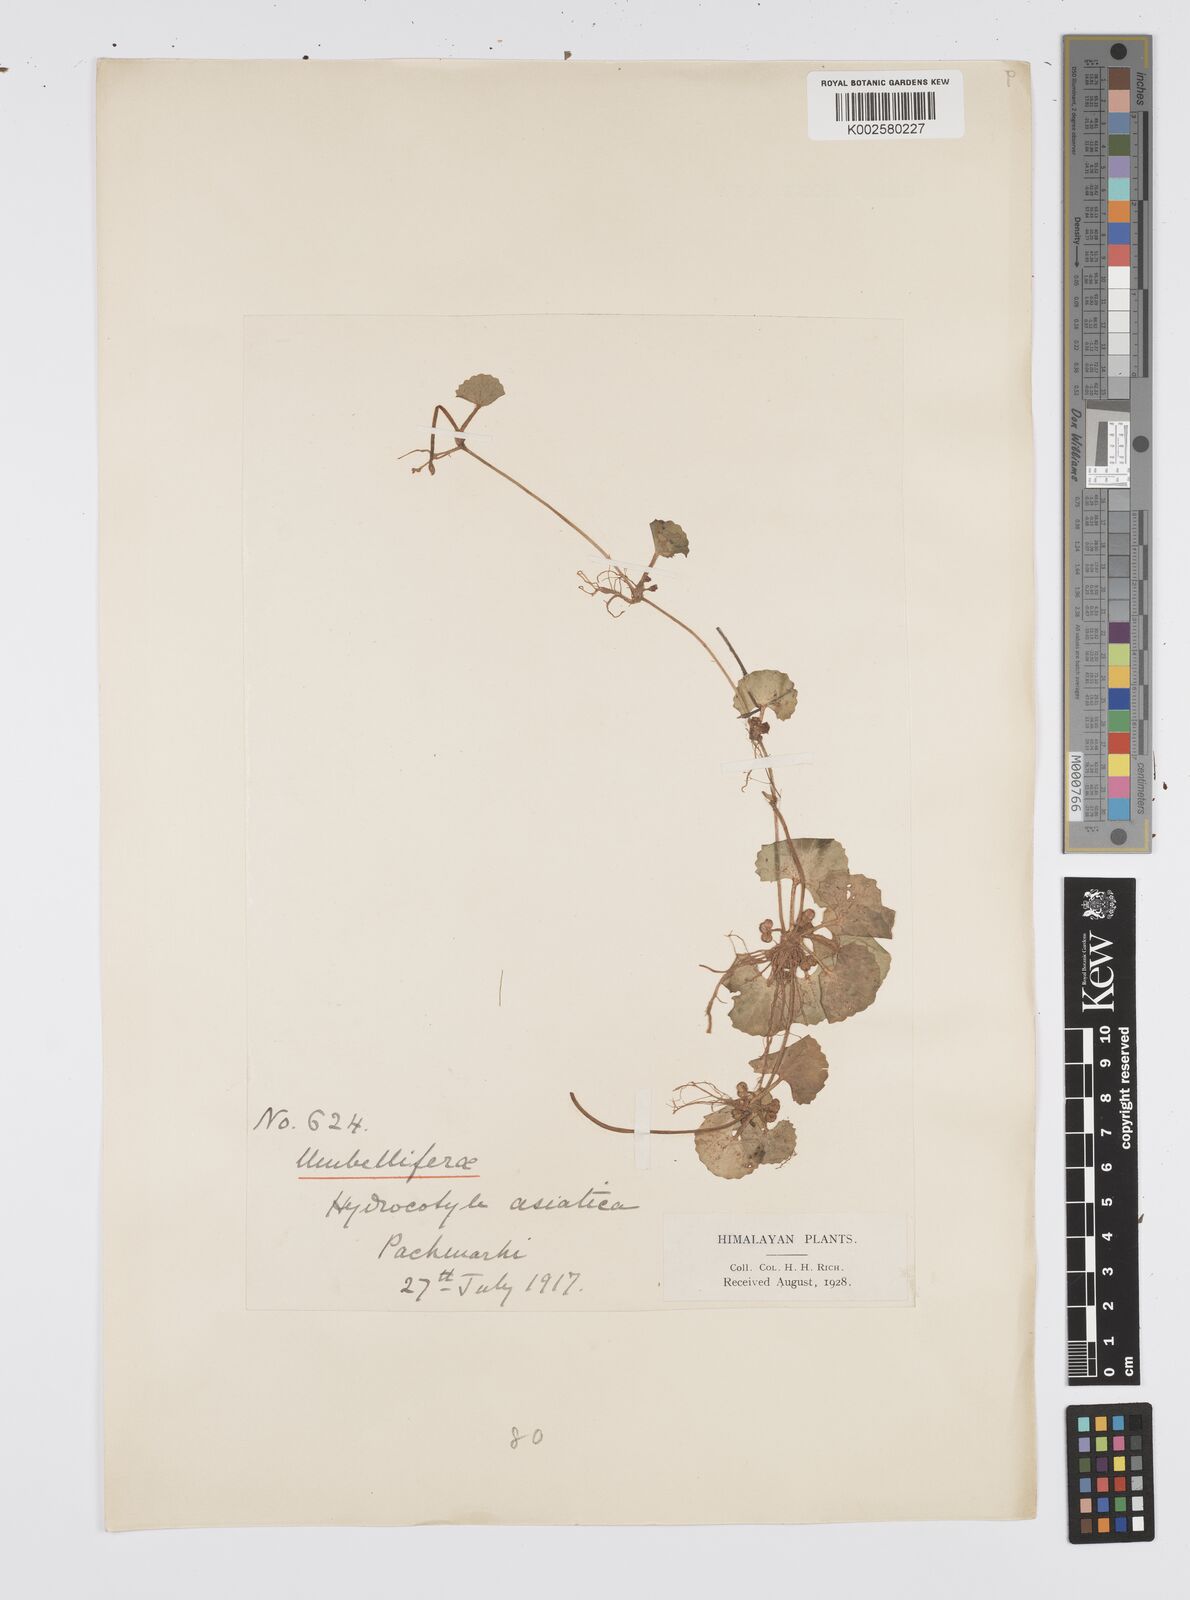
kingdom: Plantae
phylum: Tracheophyta
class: Magnoliopsida
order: Apiales
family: Apiaceae
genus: Centella
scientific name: Centella asiatica
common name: Spadeleaf
